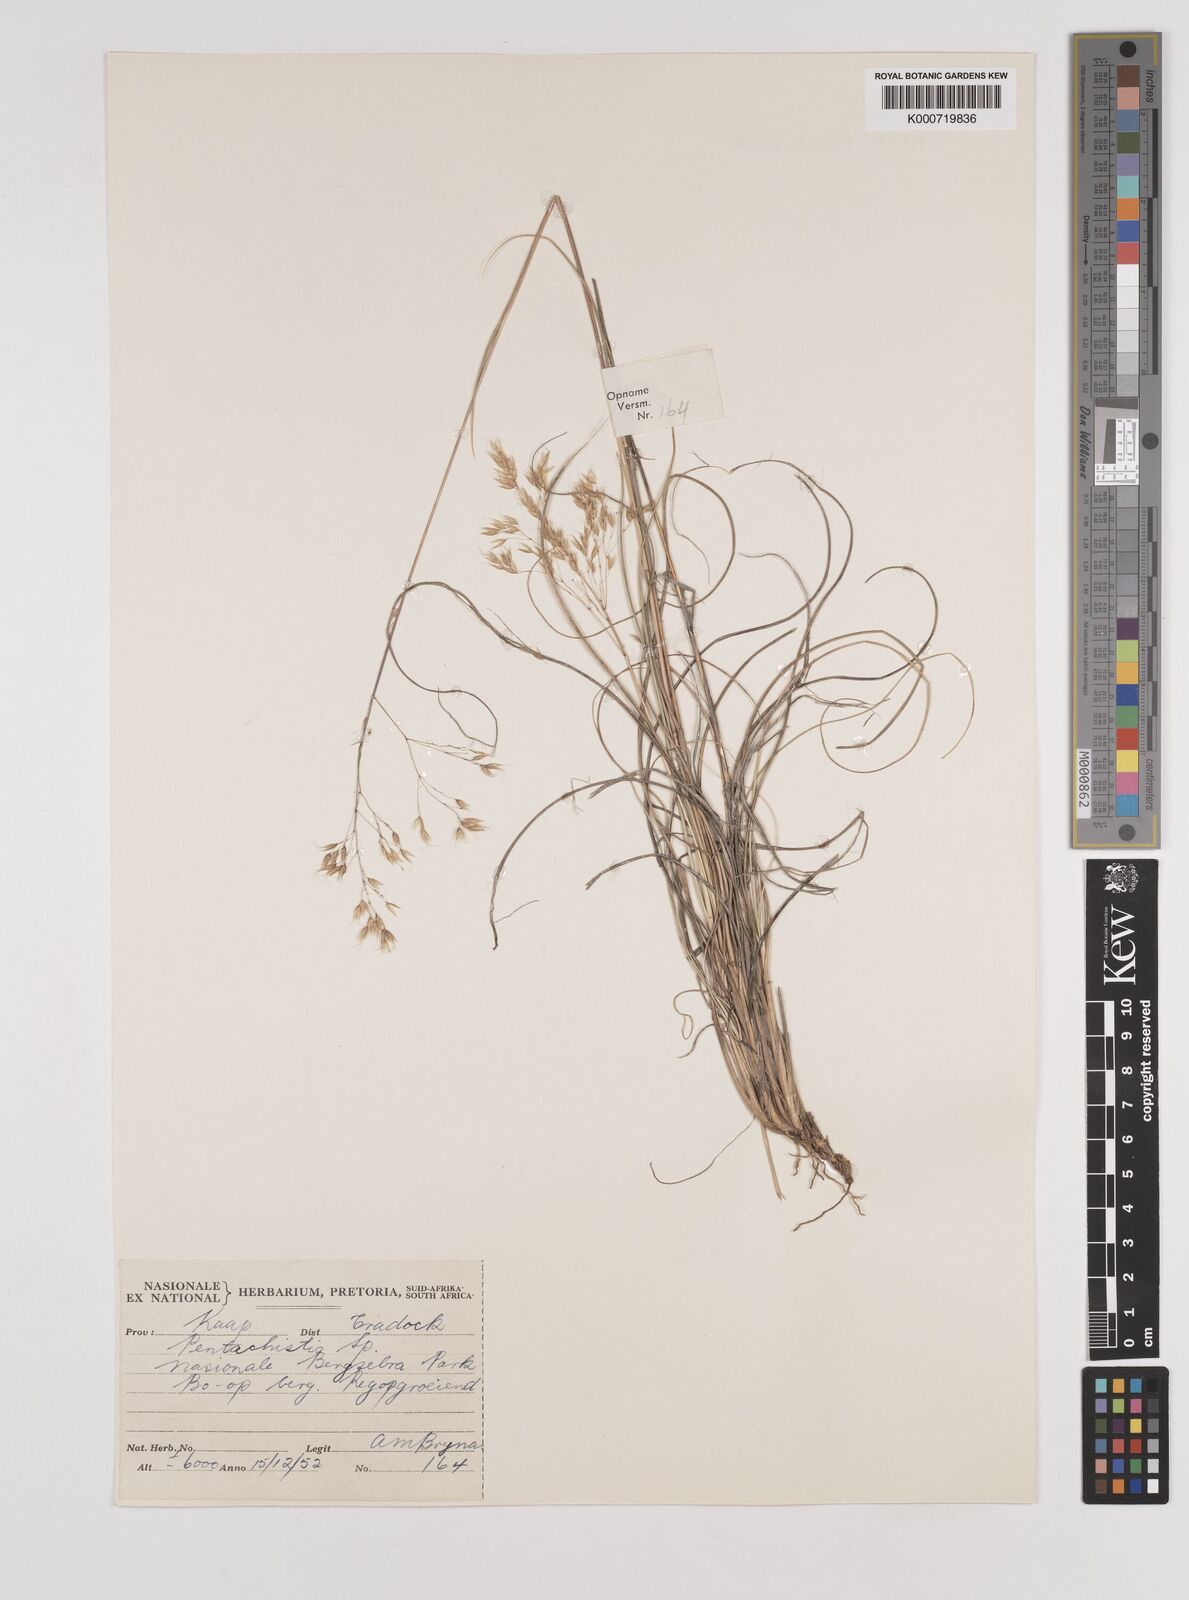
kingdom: Plantae
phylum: Tracheophyta
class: Liliopsida
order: Poales
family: Poaceae
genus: Pentaschistis
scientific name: Pentaschistis
